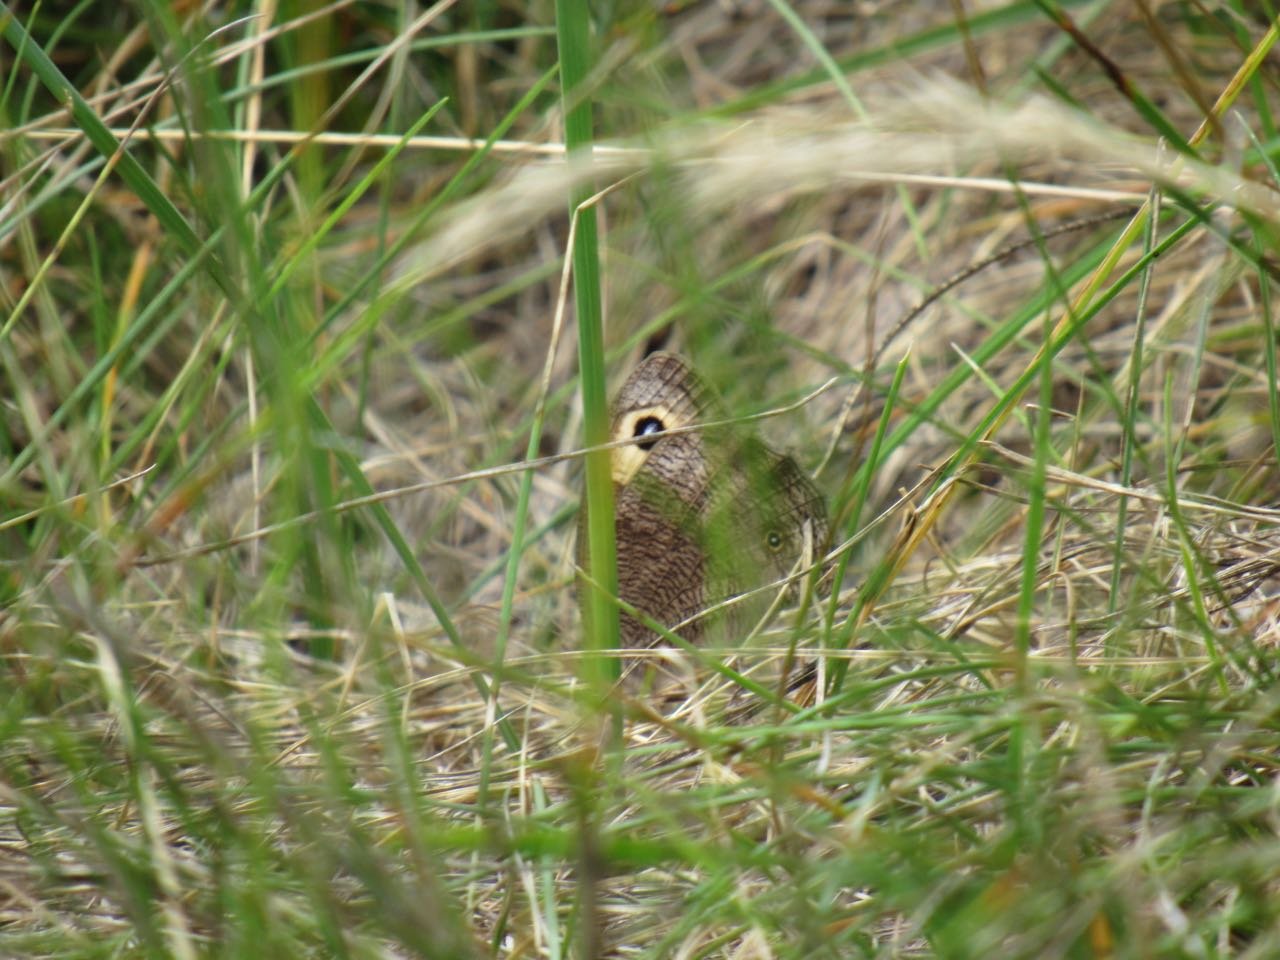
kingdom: Animalia
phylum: Arthropoda
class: Insecta
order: Lepidoptera
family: Nymphalidae
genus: Cercyonis
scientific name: Cercyonis pegala
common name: Common Wood-Nymph
